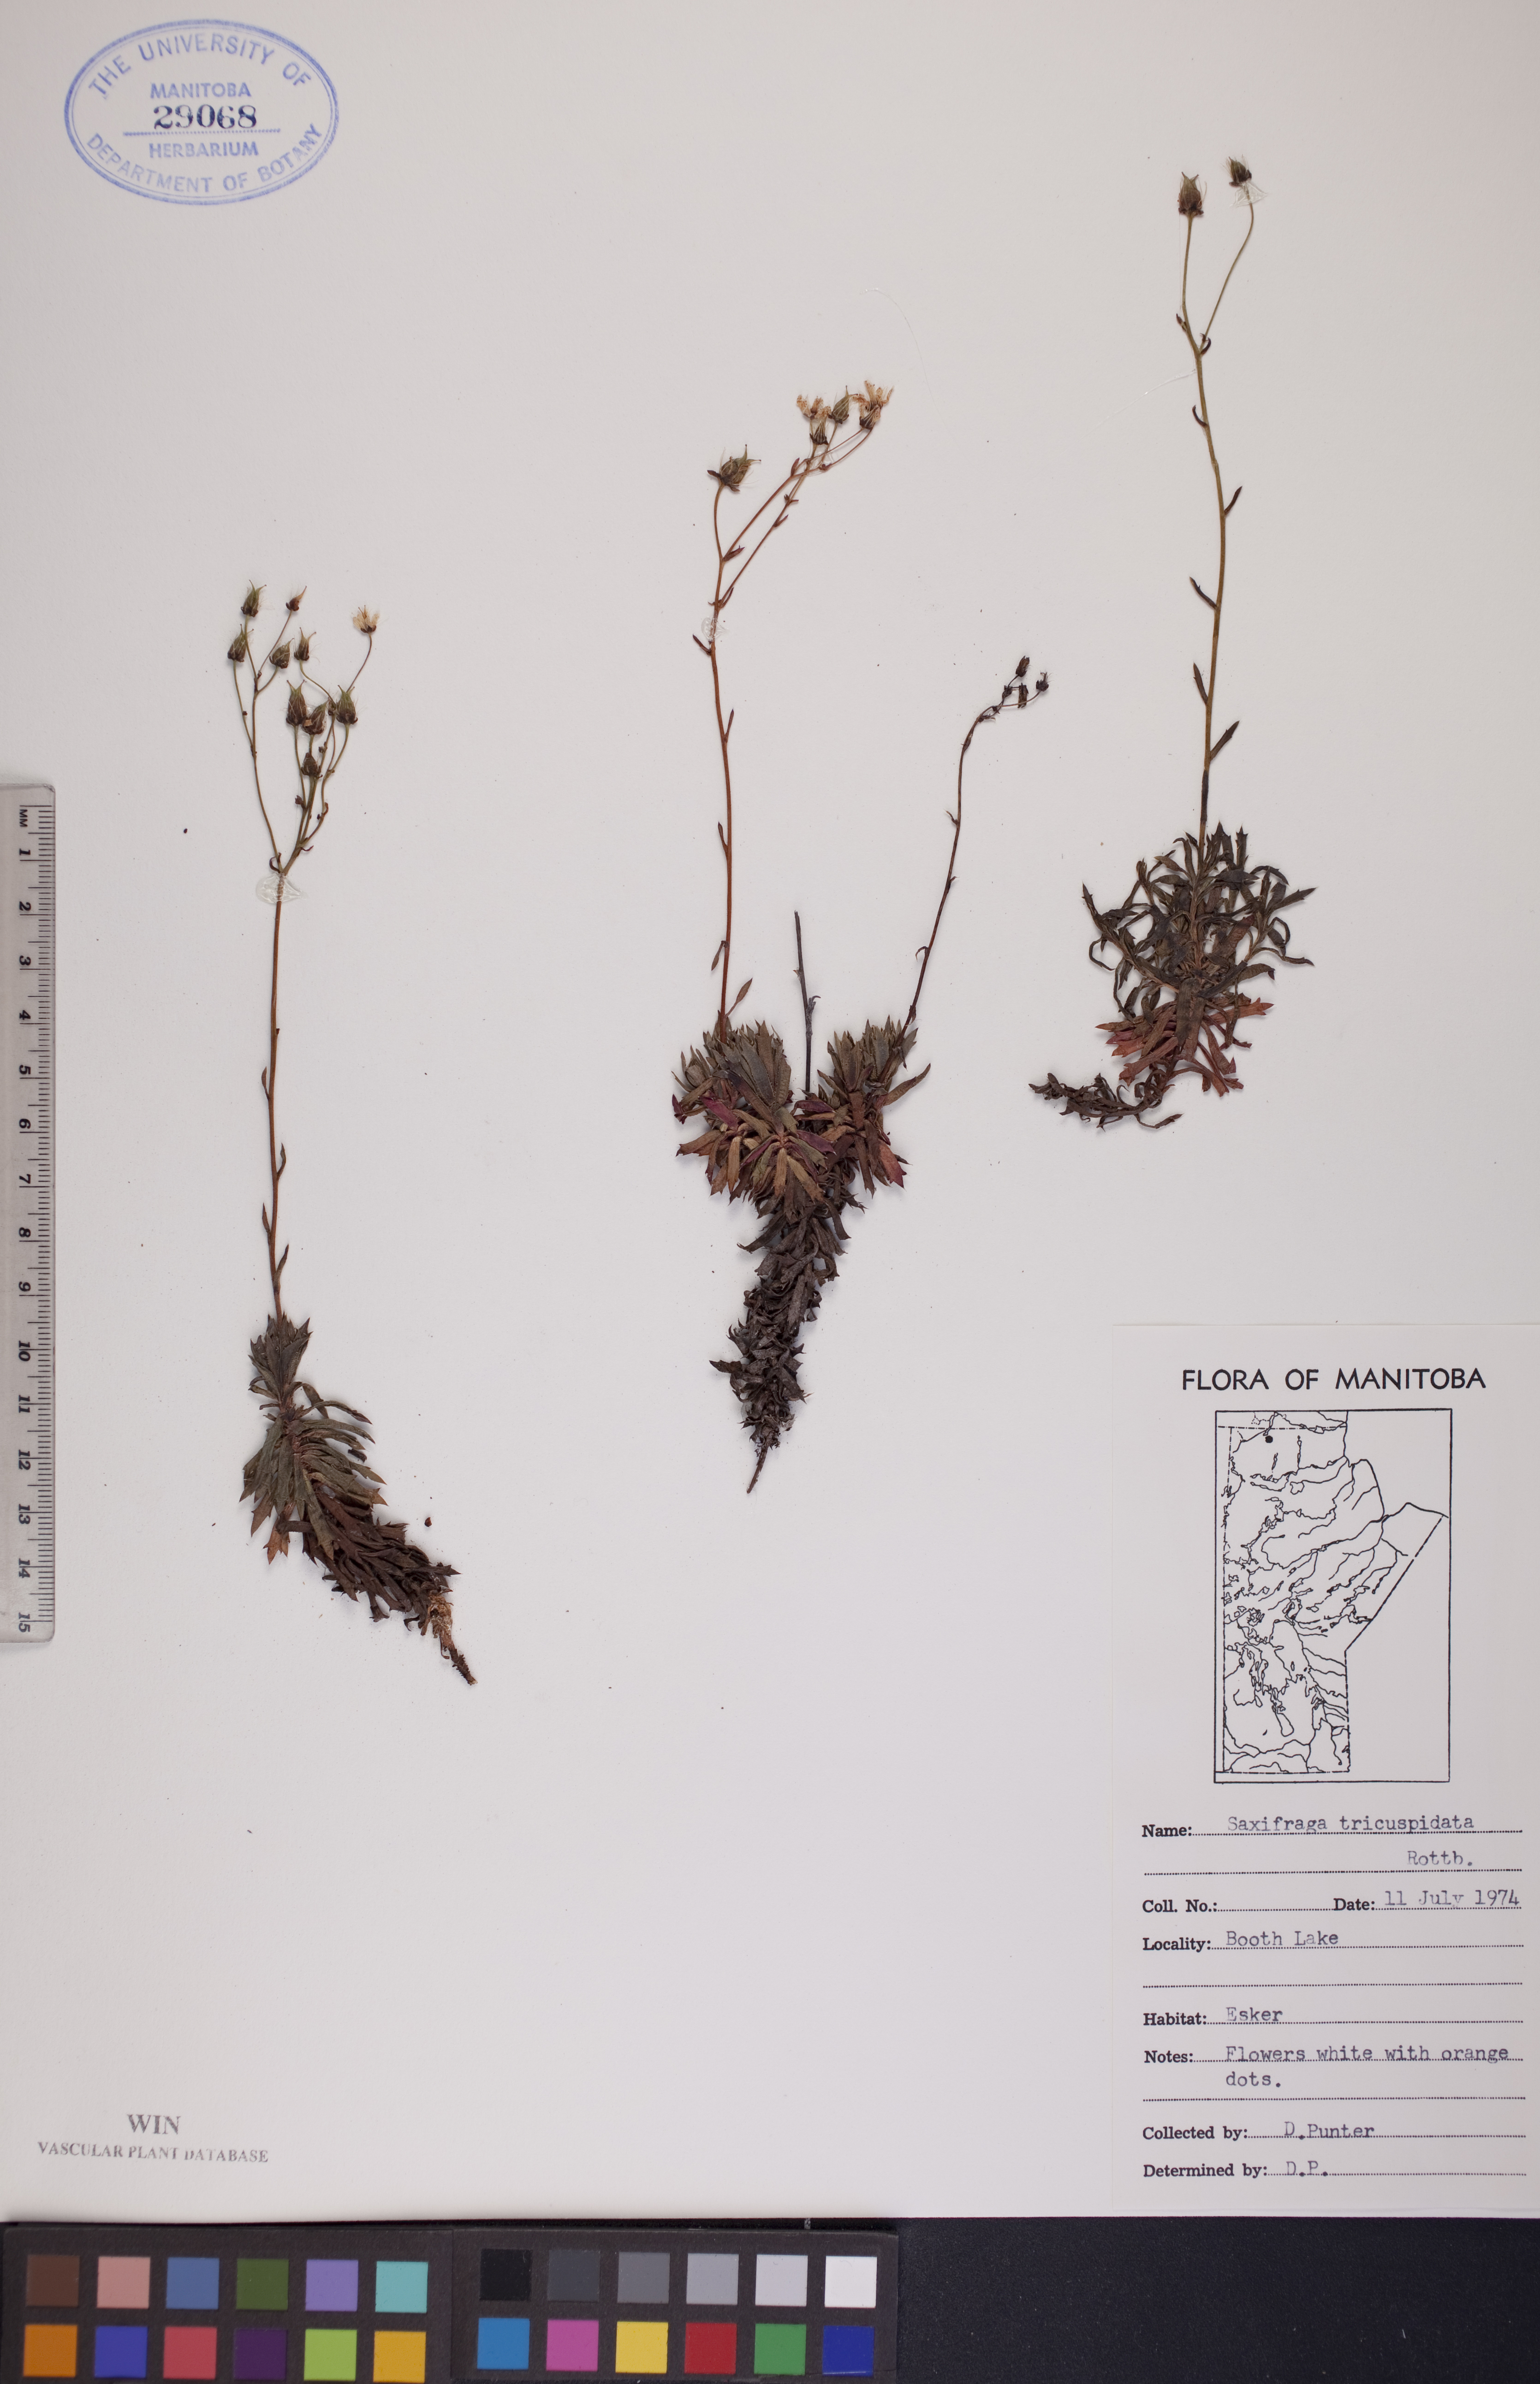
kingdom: Plantae
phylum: Tracheophyta
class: Magnoliopsida
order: Saxifragales
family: Saxifragaceae
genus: Saxifraga
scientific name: Saxifraga tricuspidata
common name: Prickly saxifrage
